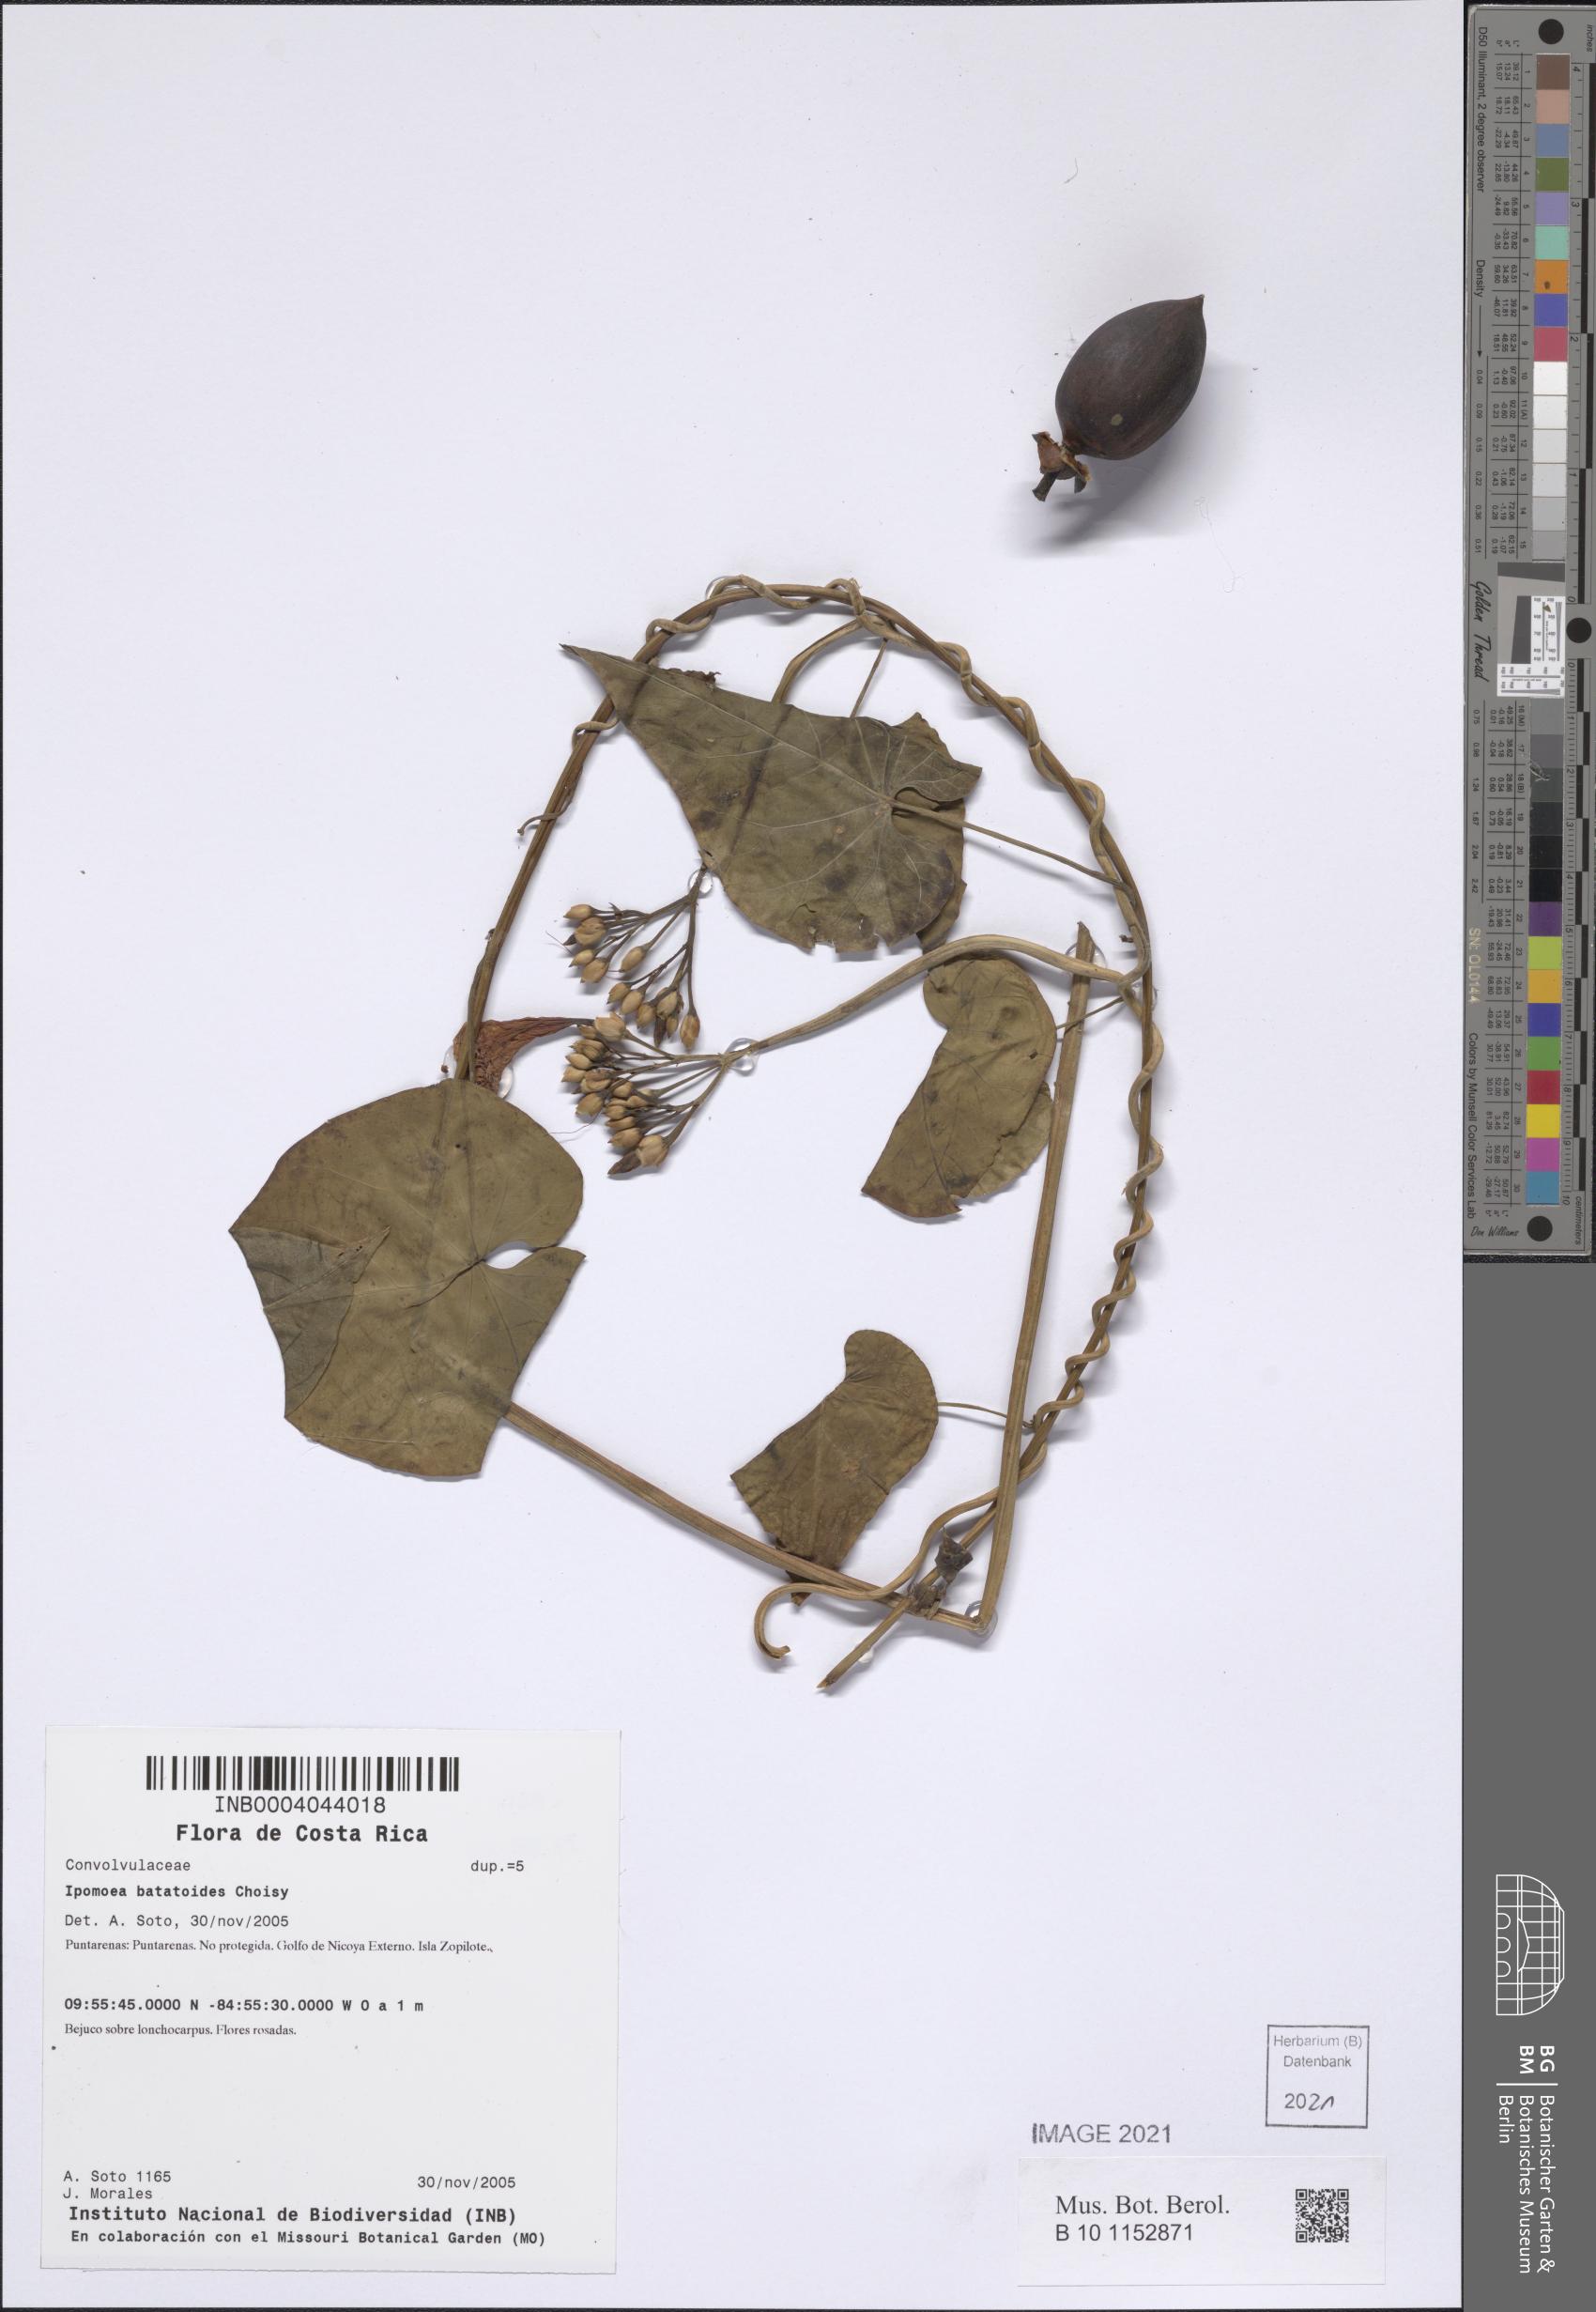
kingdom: Plantae
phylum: Tracheophyta
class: Magnoliopsida
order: Solanales
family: Convolvulaceae
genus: Ipomoea
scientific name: Ipomoea splendor-sylvae
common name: Morning glory
